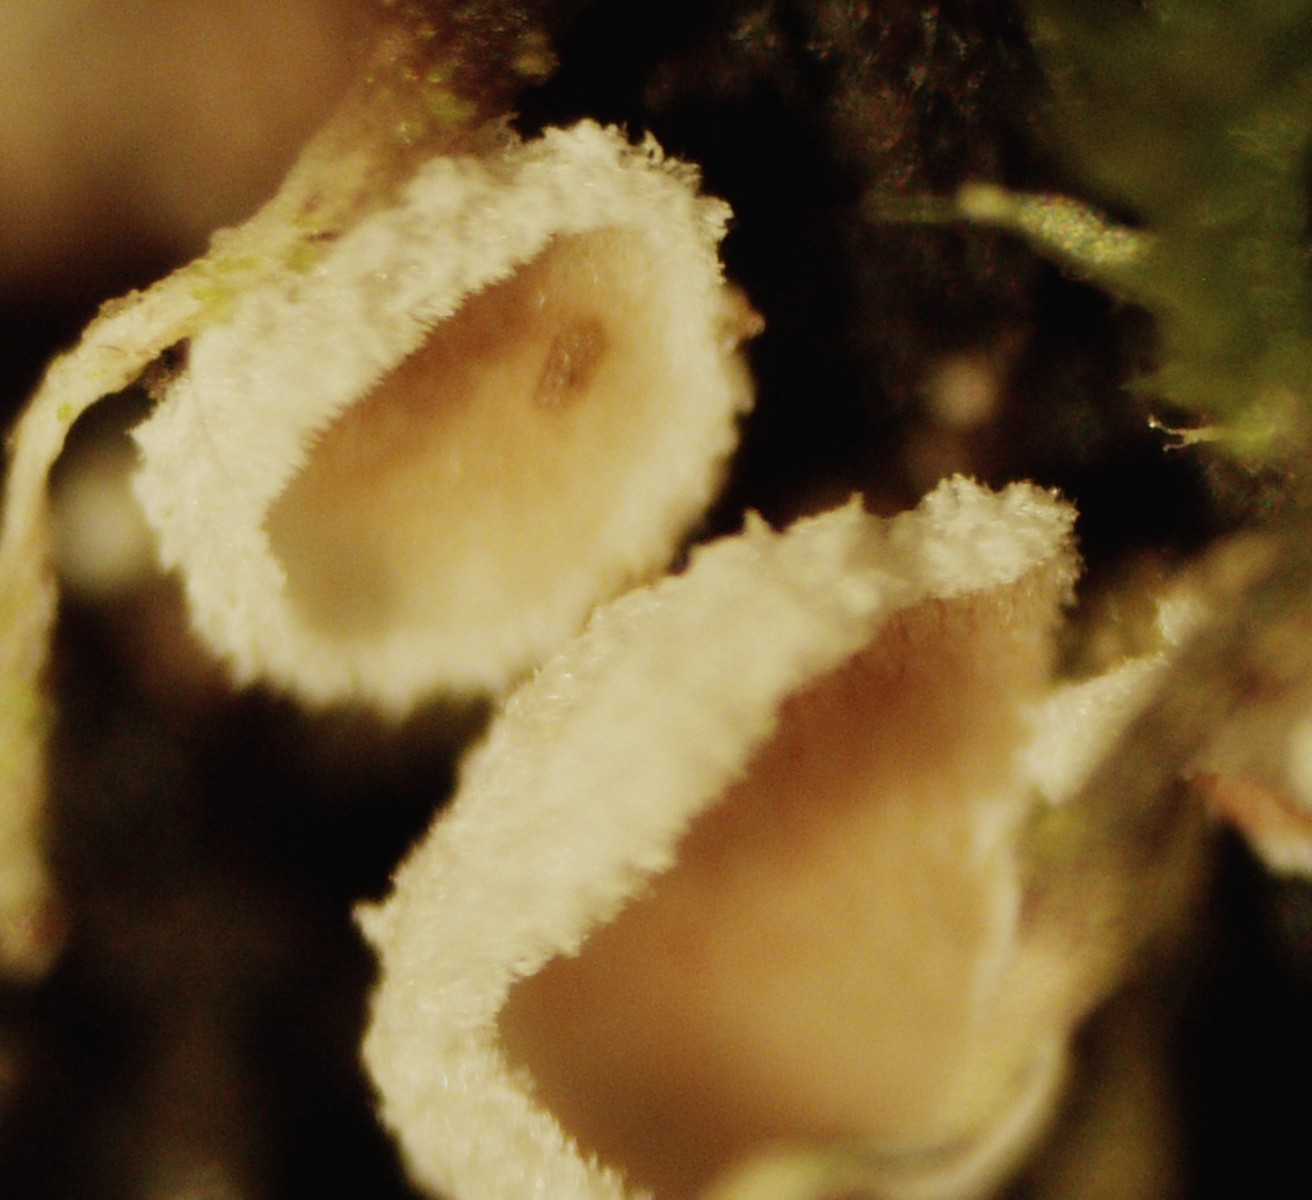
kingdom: Fungi
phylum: Basidiomycota
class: Agaricomycetes
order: Agaricales
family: Chromocyphellaceae
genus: Chromocyphella
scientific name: Chromocyphella muscicola
